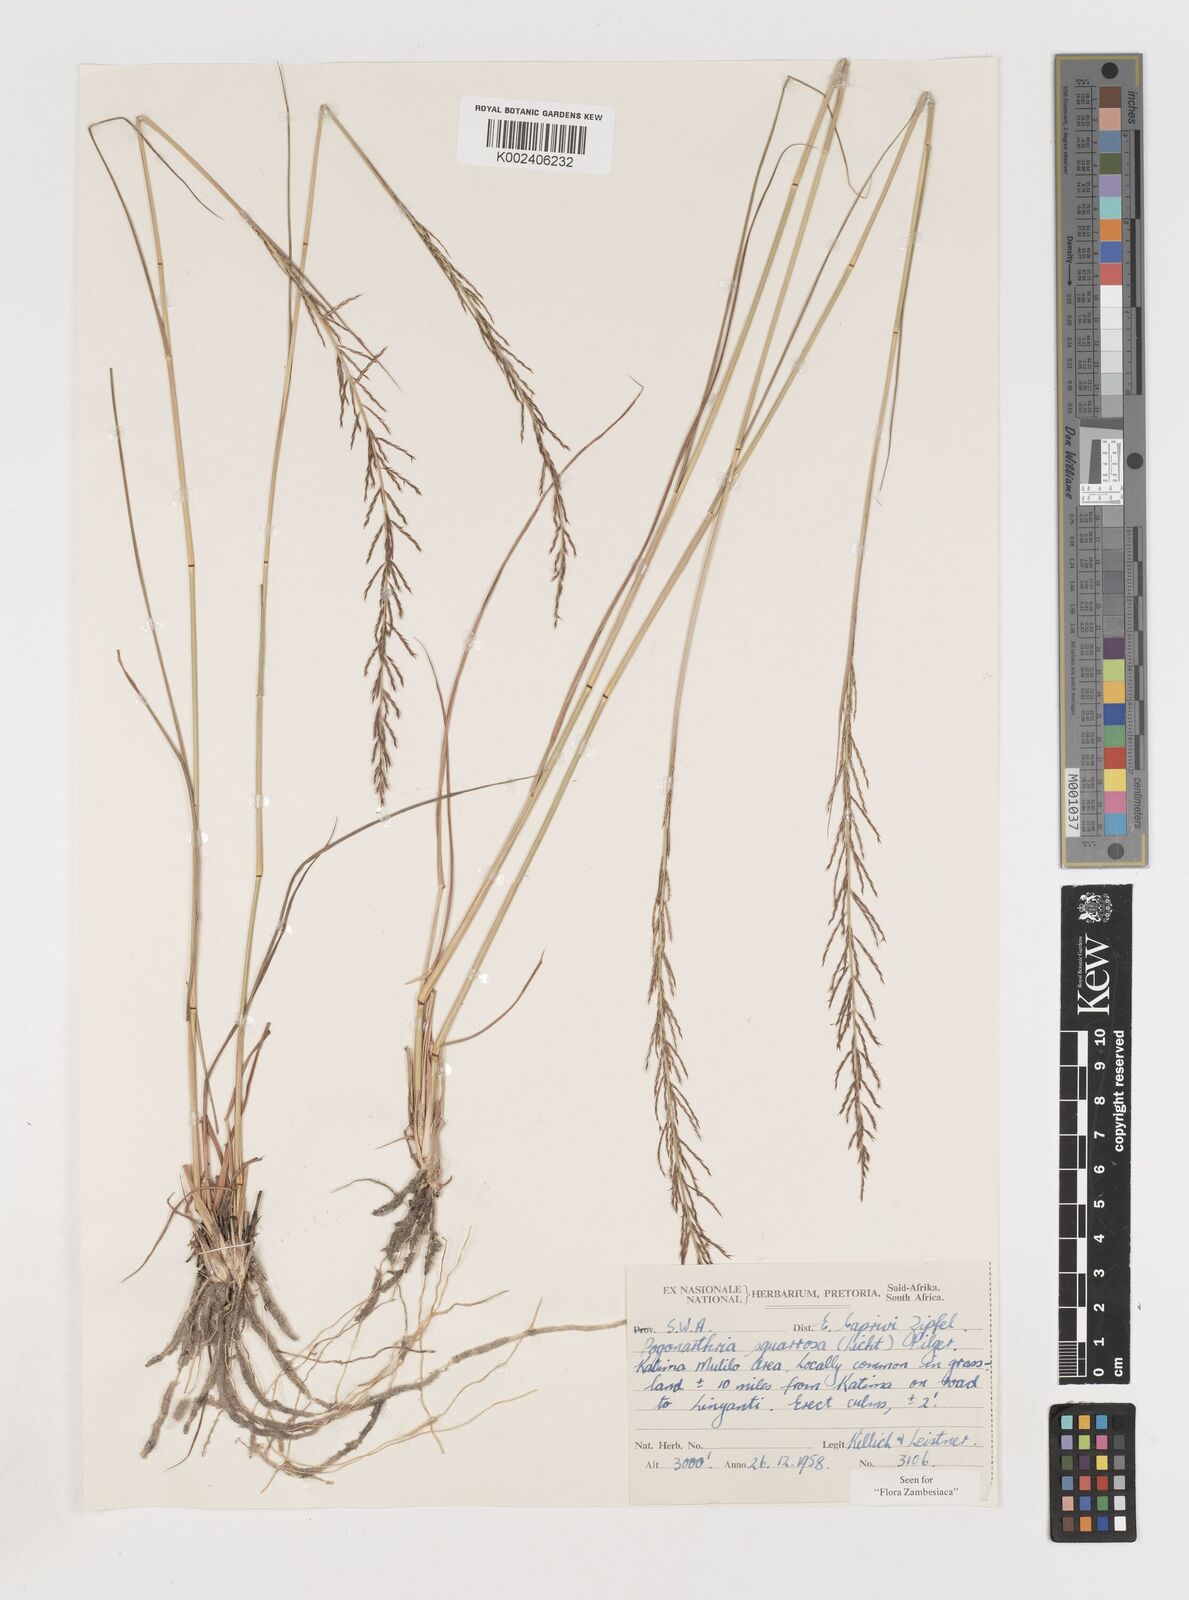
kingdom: Plantae
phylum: Tracheophyta
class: Liliopsida
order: Poales
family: Poaceae
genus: Pogonarthria
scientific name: Pogonarthria squarrosa
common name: Grass
